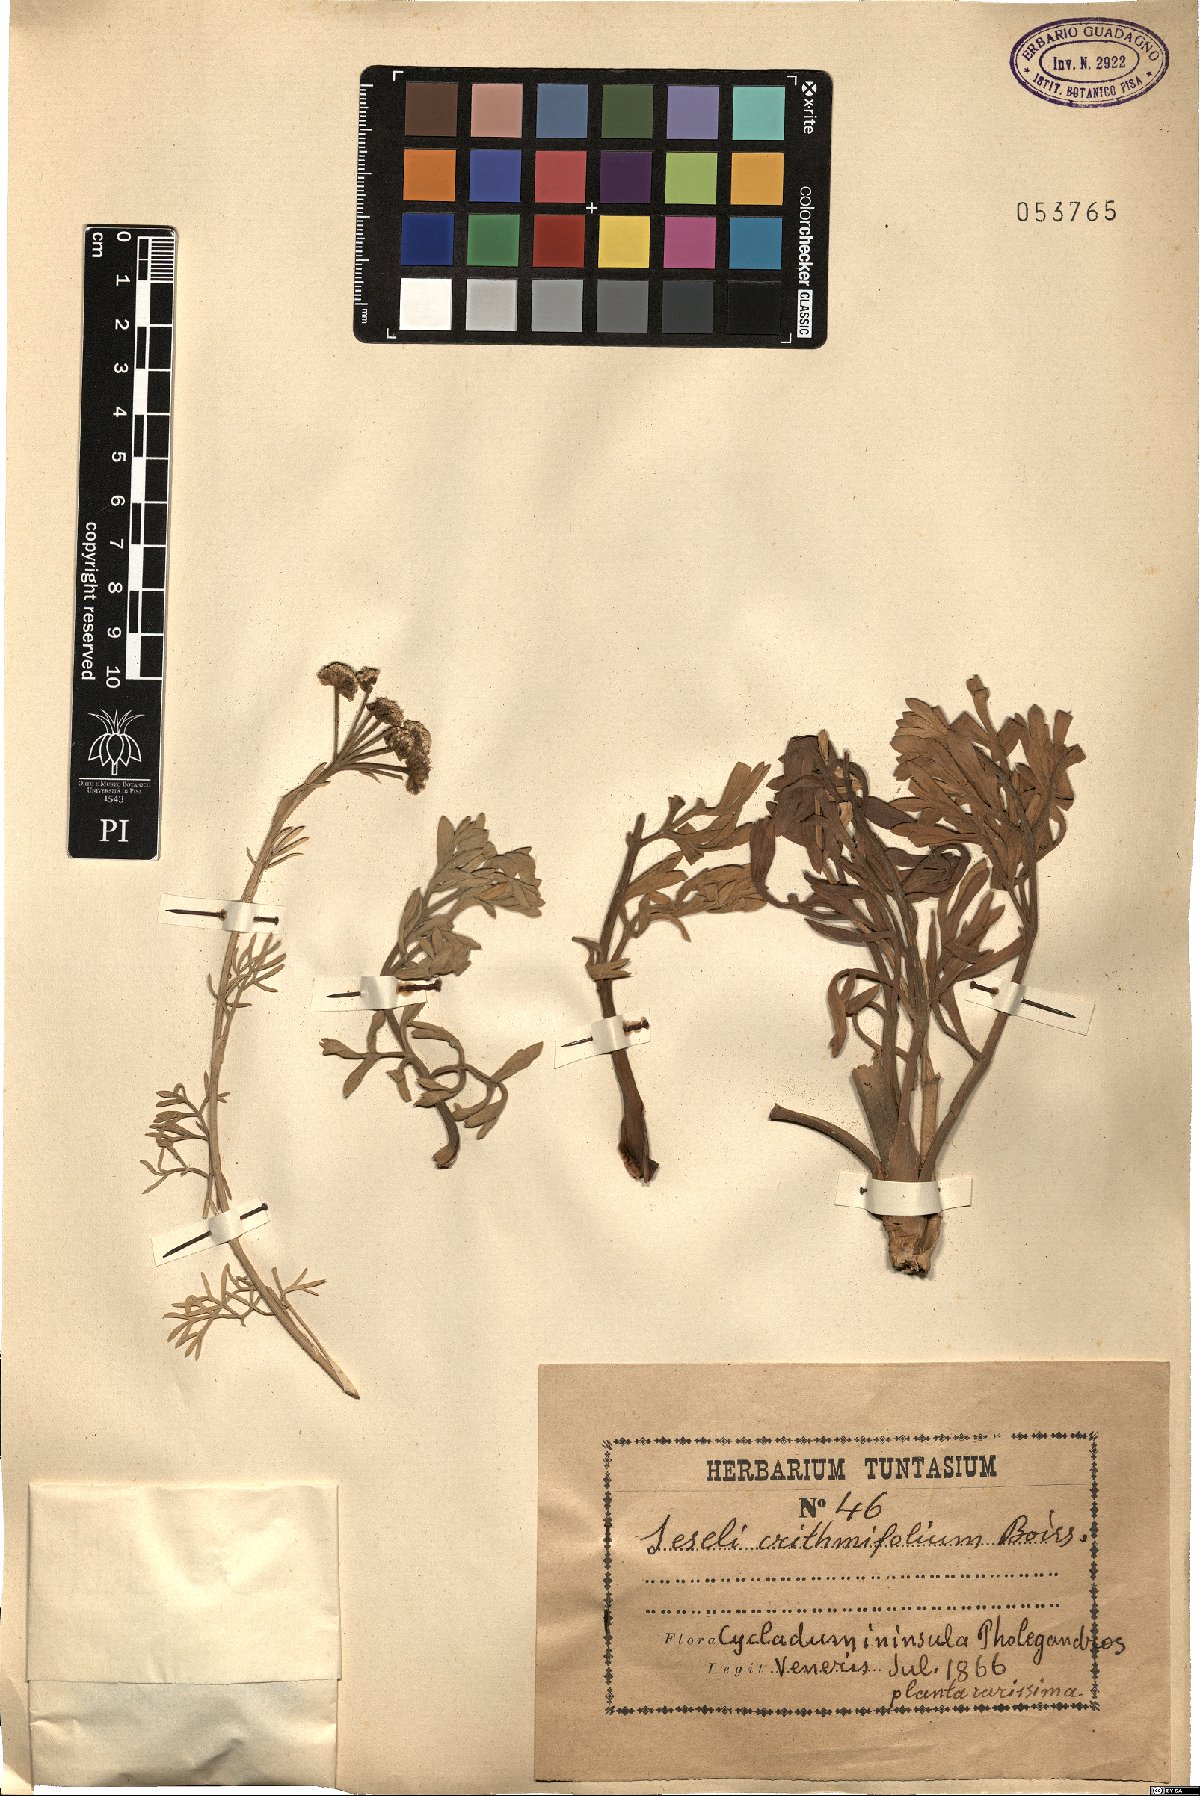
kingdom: Plantae
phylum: Tracheophyta
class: Magnoliopsida
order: Apiales
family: Apiaceae
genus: Seseli
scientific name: Seseli crithmifolium
